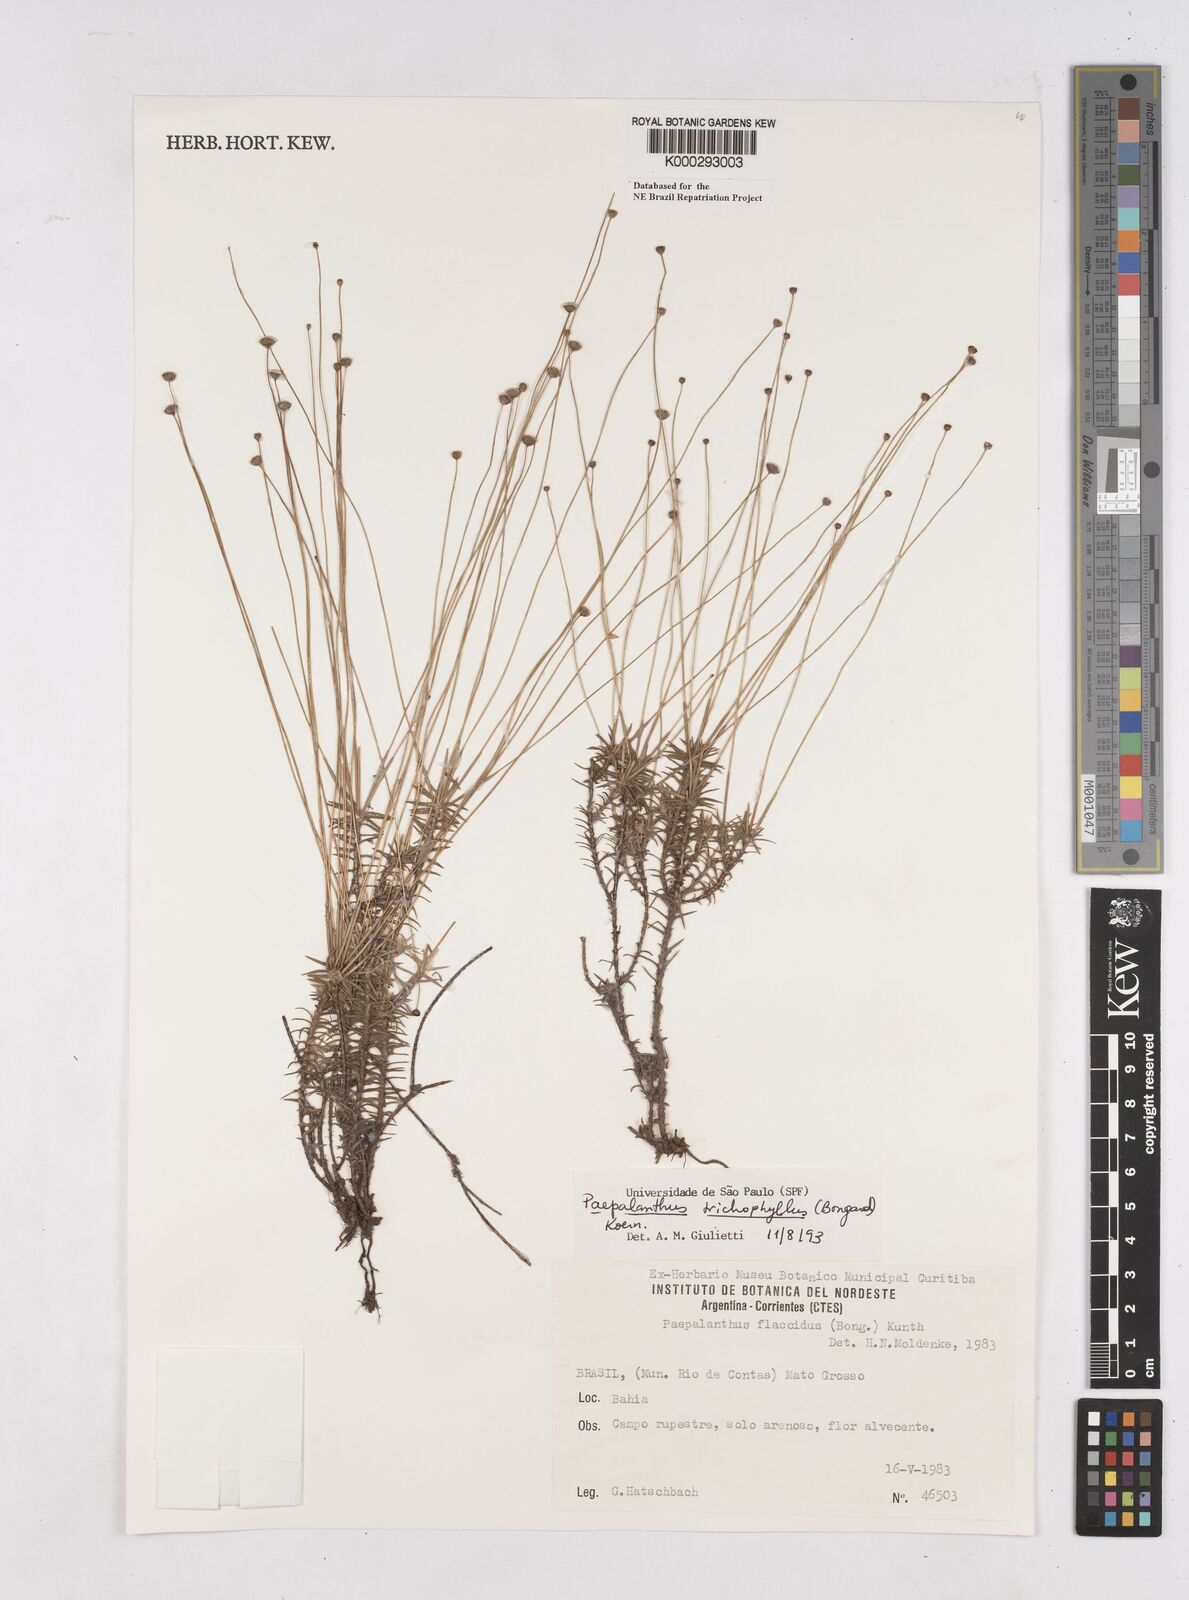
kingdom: Plantae
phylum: Tracheophyta
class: Liliopsida
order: Poales
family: Eriocaulaceae
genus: Paepalanthus
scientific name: Paepalanthus
